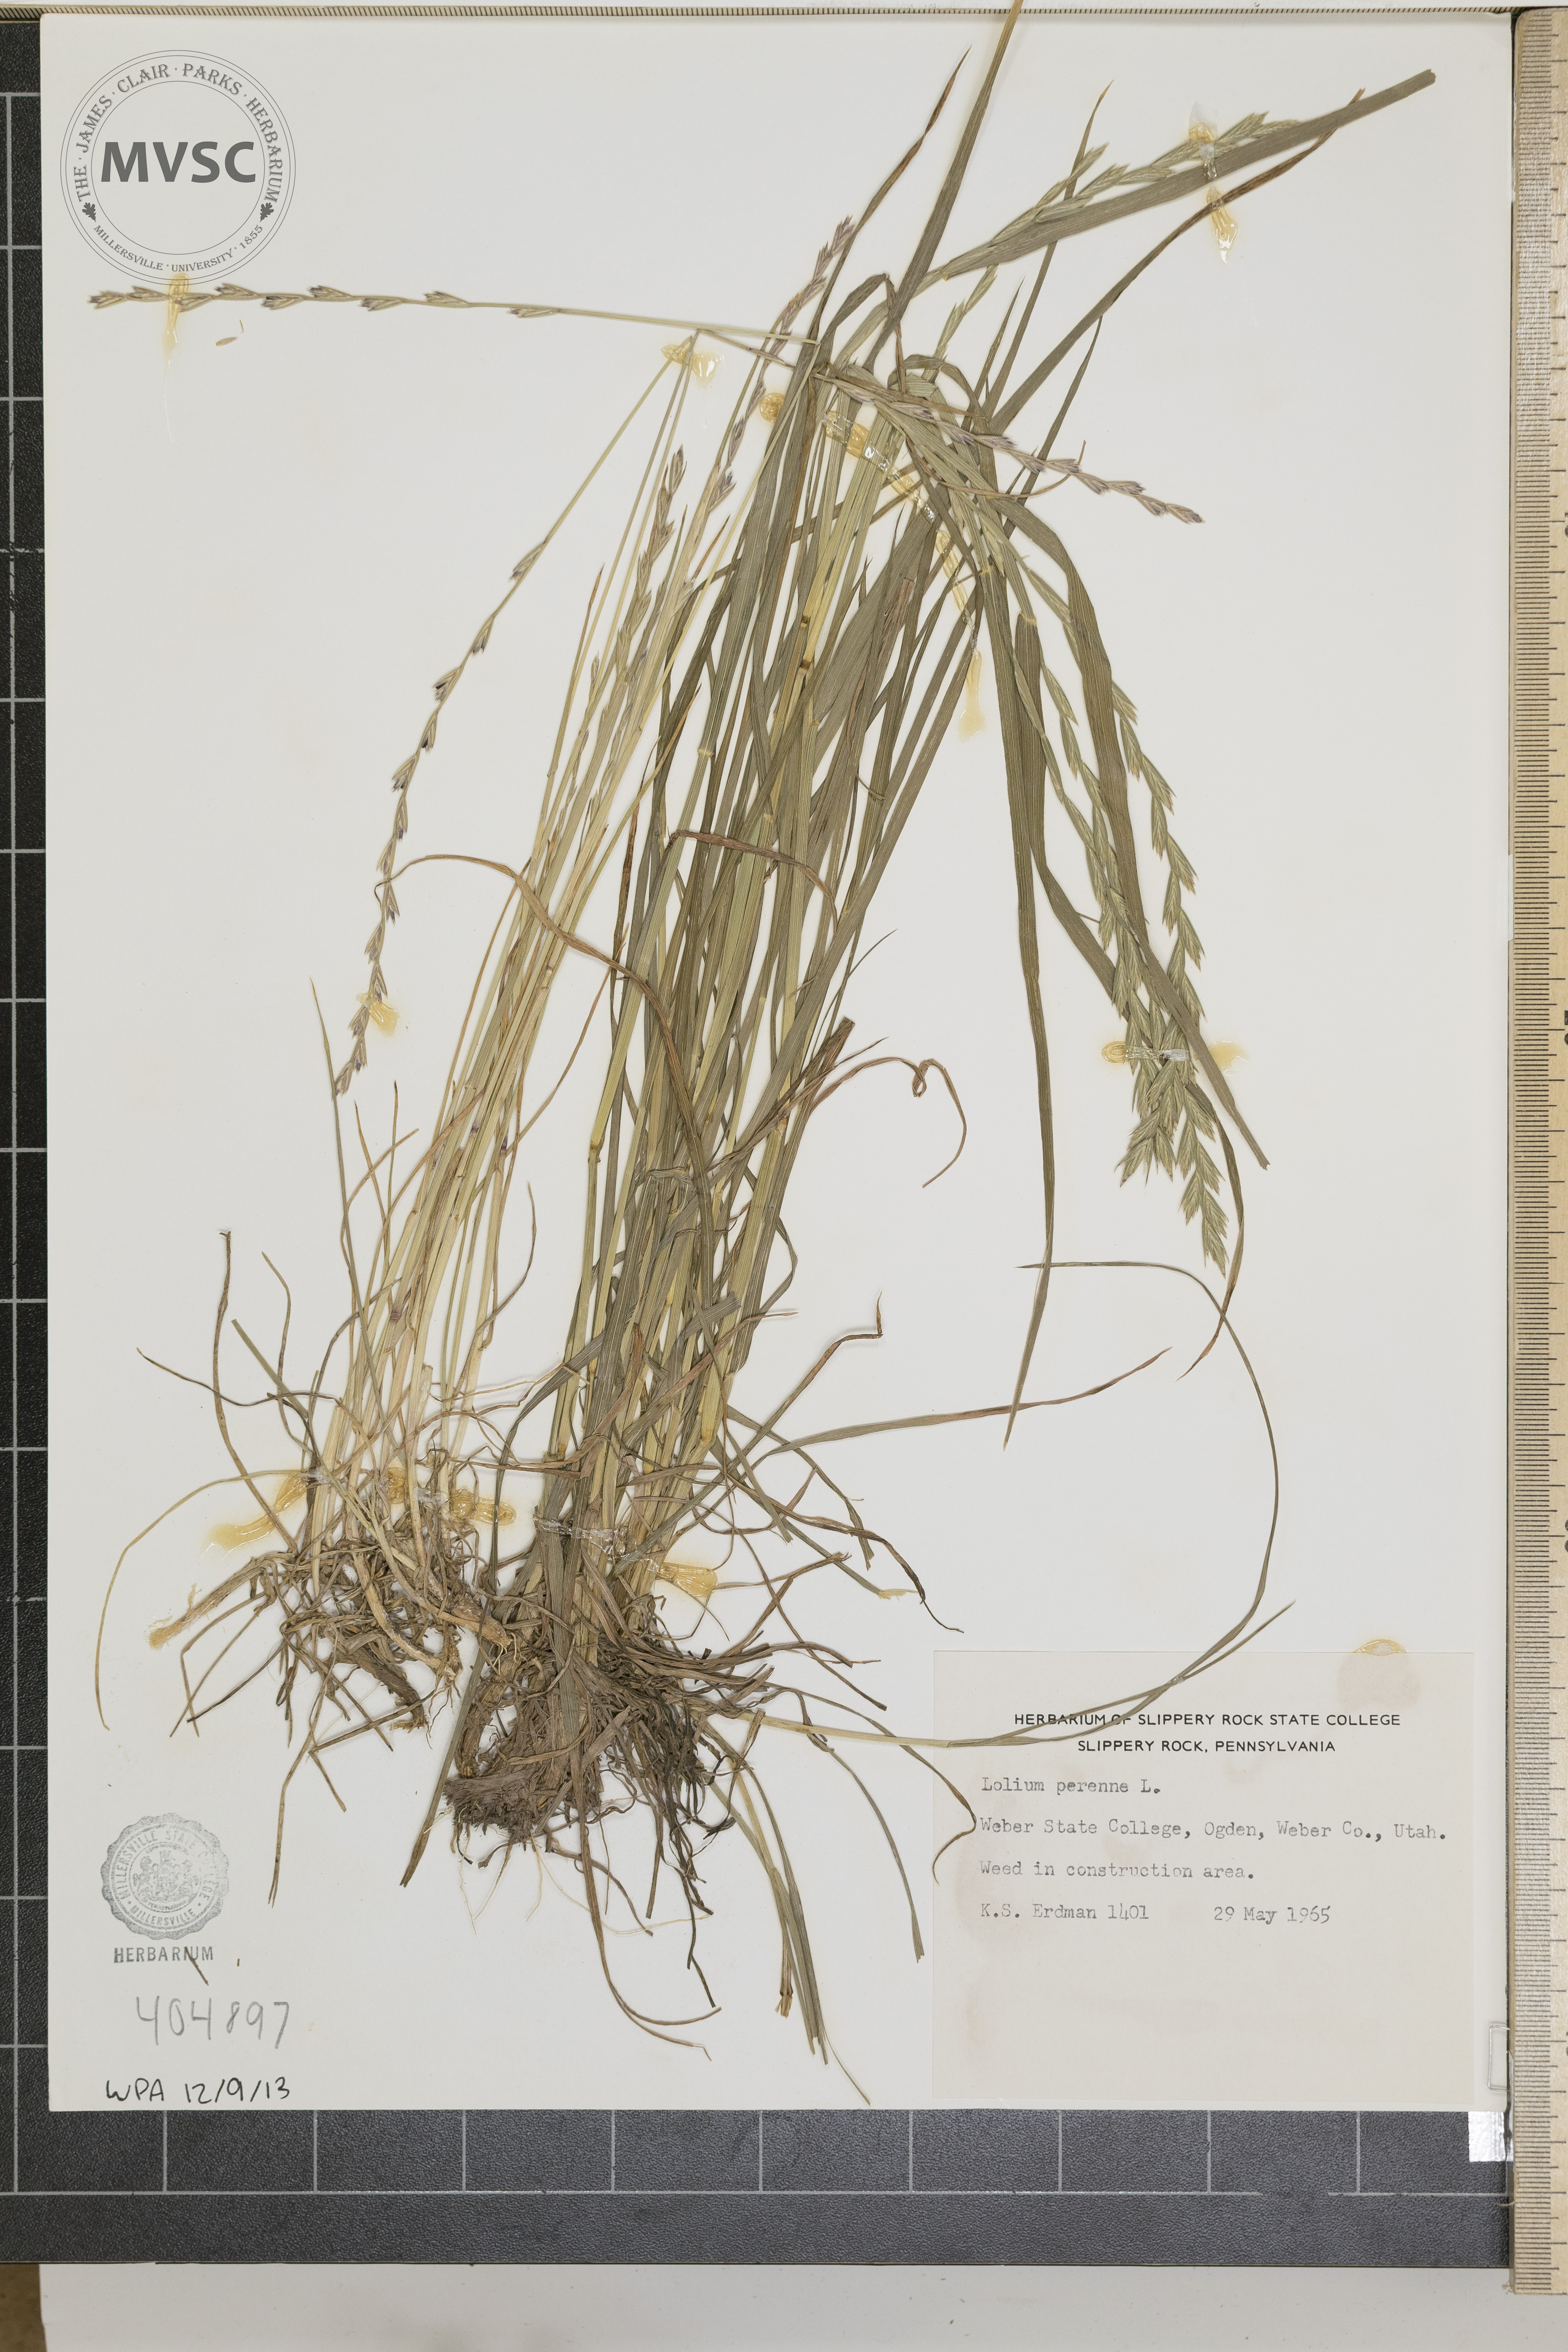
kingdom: Plantae
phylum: Tracheophyta
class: Liliopsida
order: Poales
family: Poaceae
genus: Lolium
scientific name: Lolium perenne
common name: Perennial ryegrass
